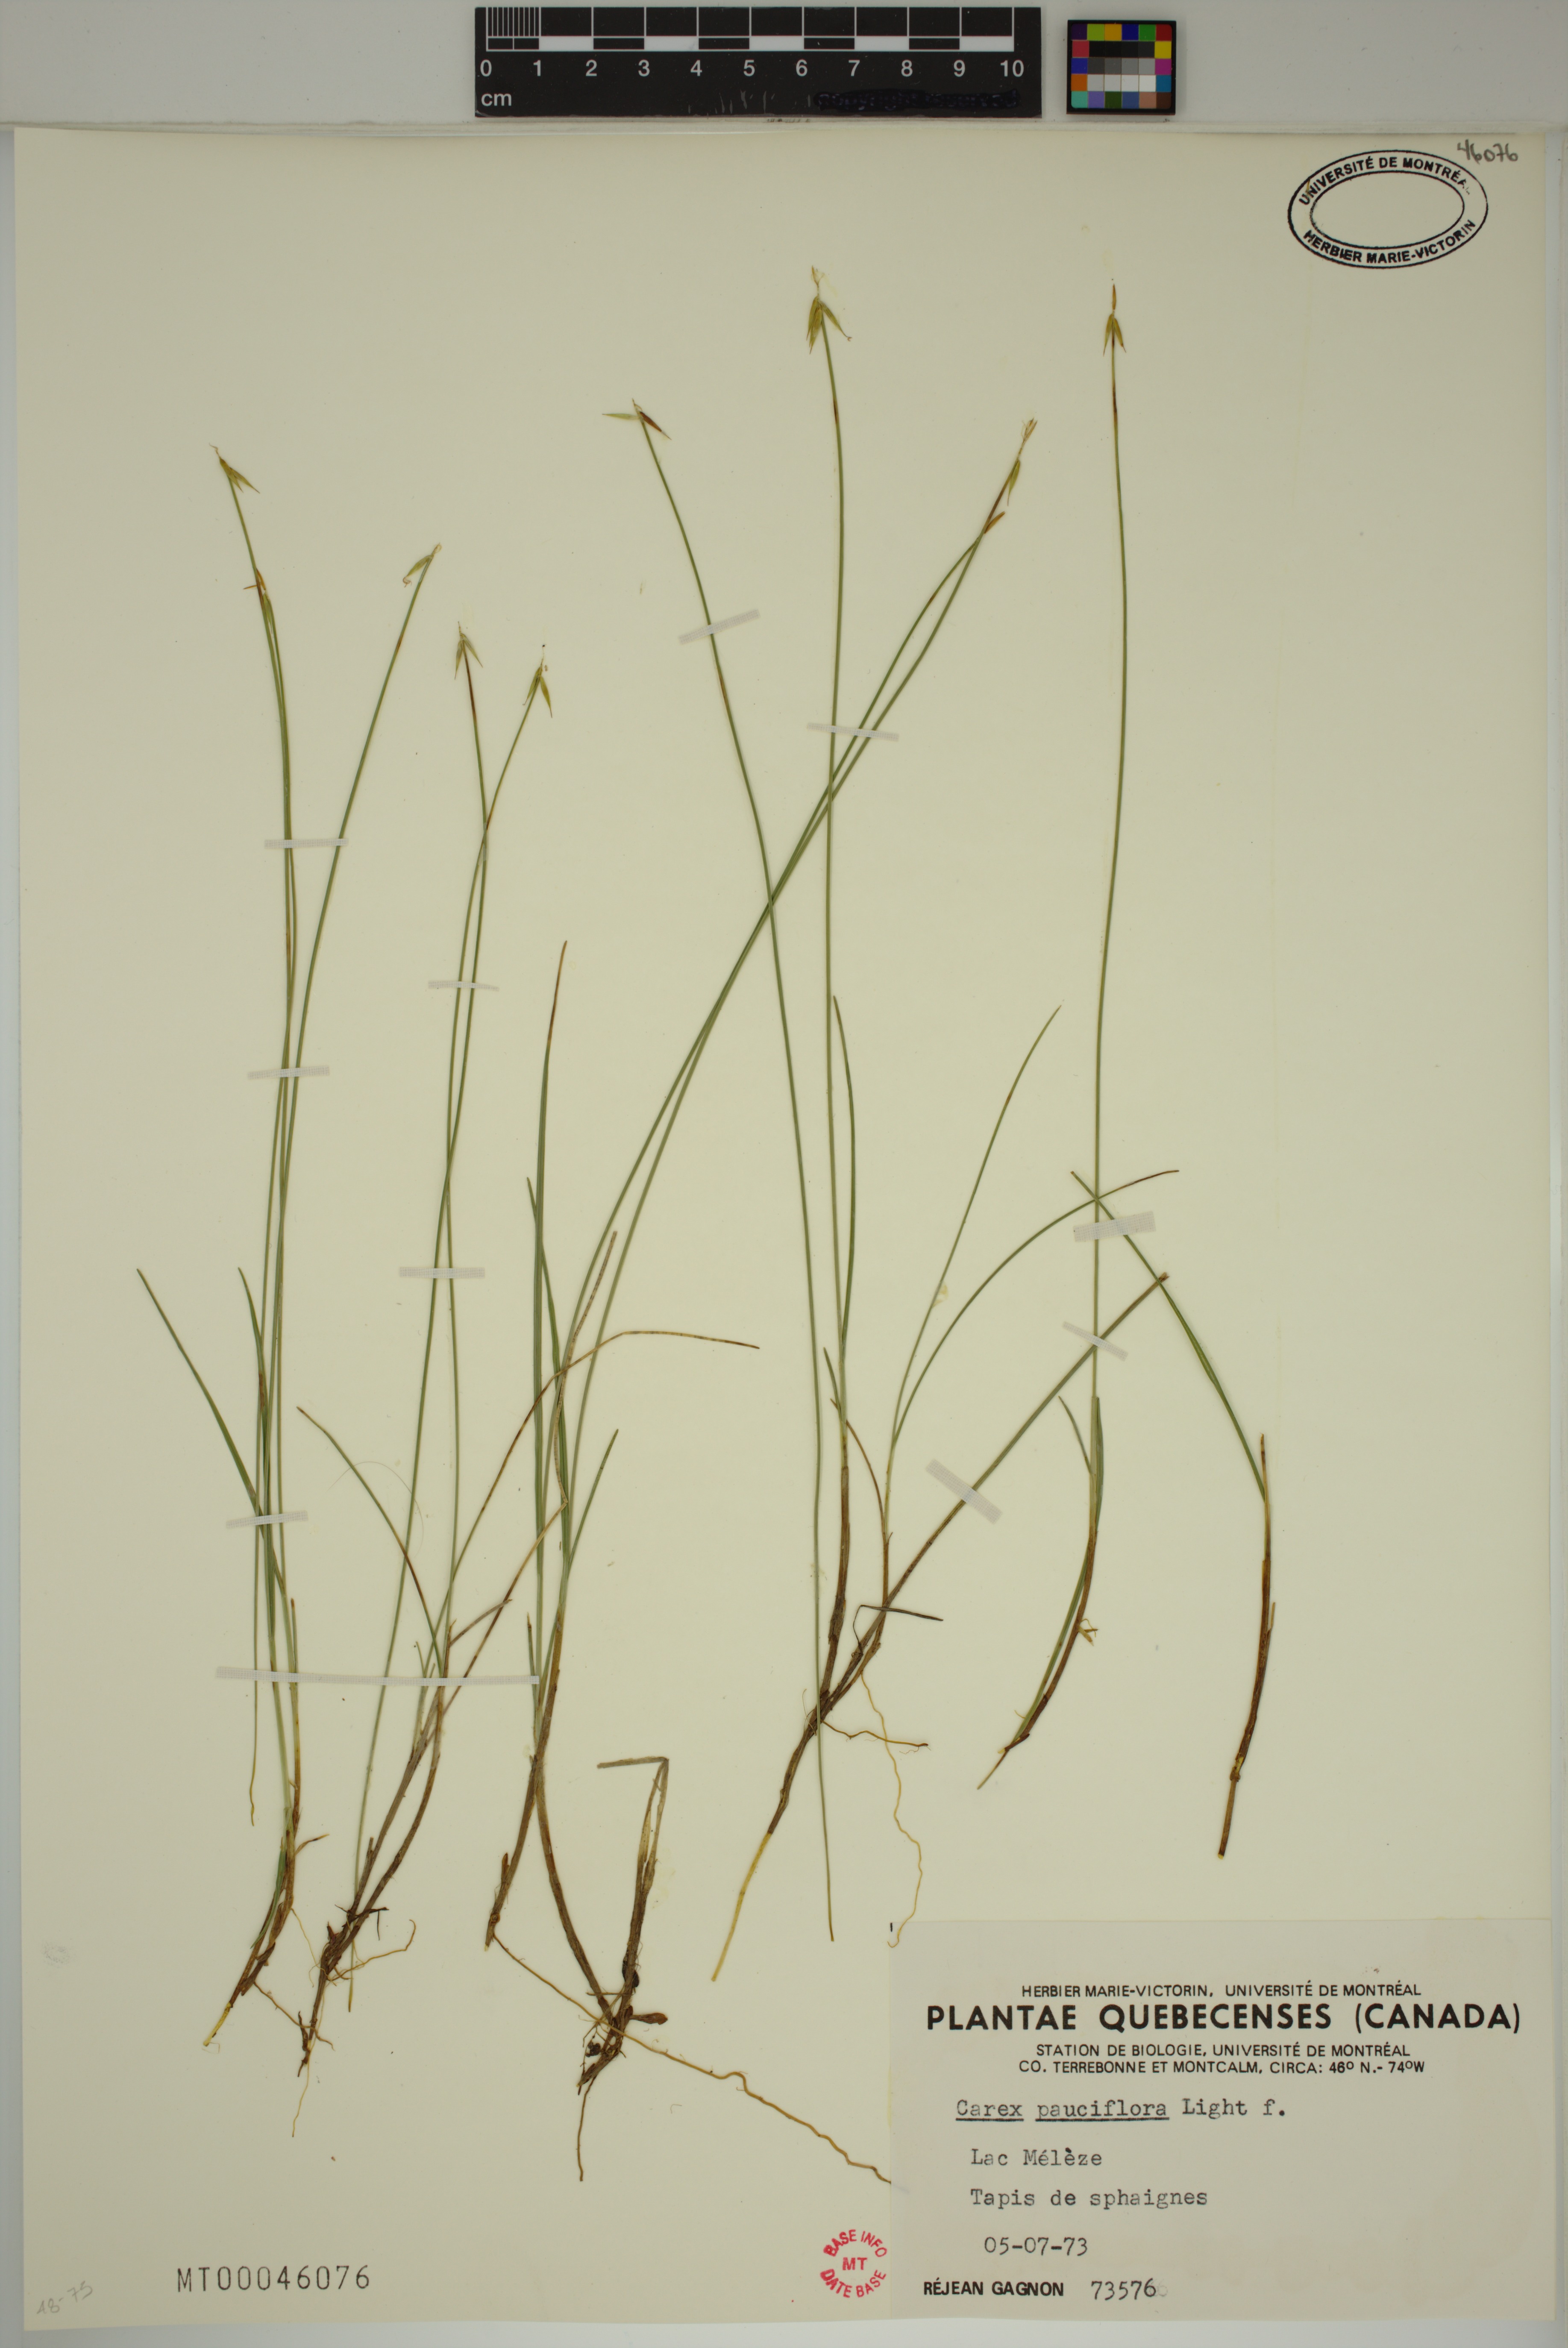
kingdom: Plantae
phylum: Tracheophyta
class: Liliopsida
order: Poales
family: Cyperaceae
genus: Carex
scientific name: Carex pauciflora
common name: Few-flowered sedge
